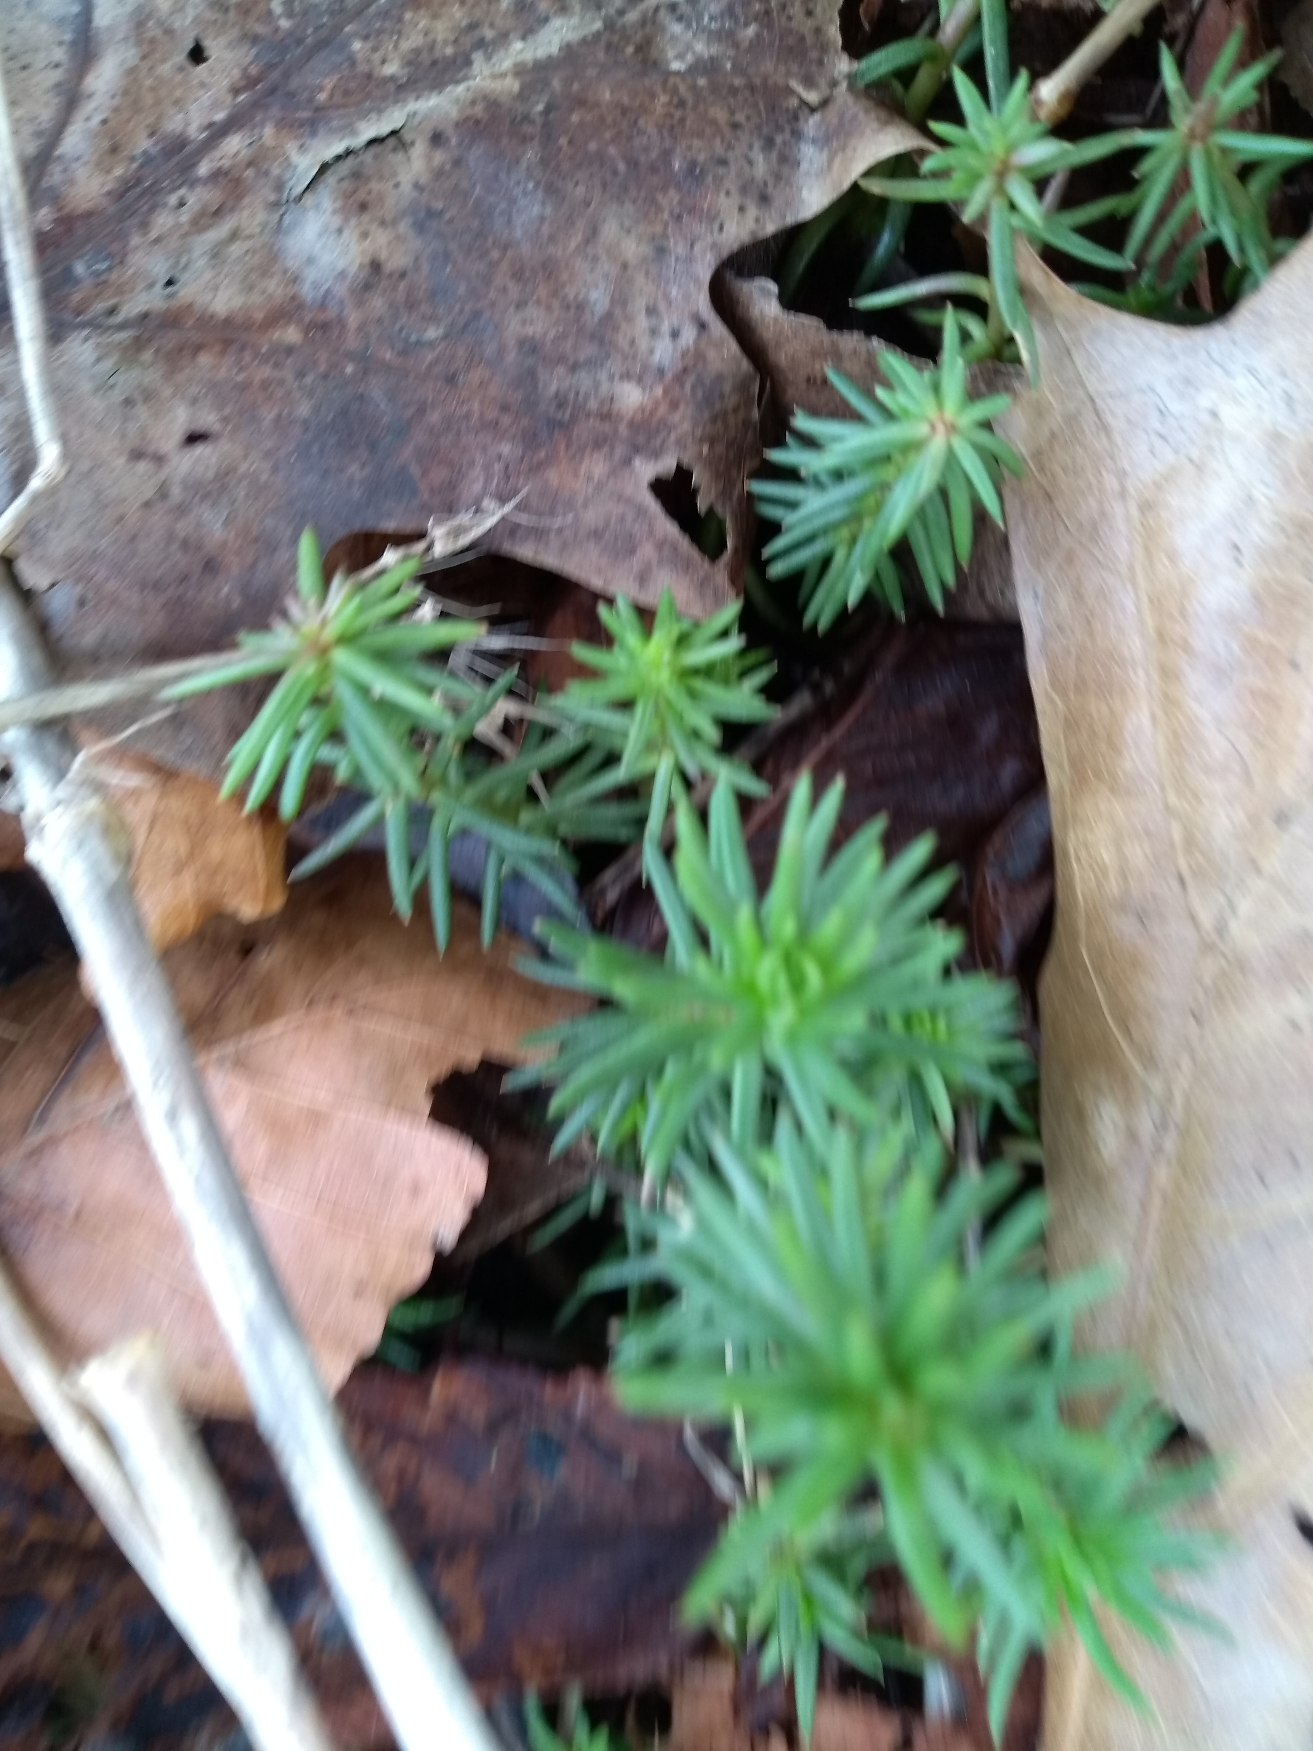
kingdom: Plantae
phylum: Tracheophyta
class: Magnoliopsida
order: Saxifragales
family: Crassulaceae
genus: Petrosedum
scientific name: Petrosedum rupestre
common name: Bjerg-stenurt
